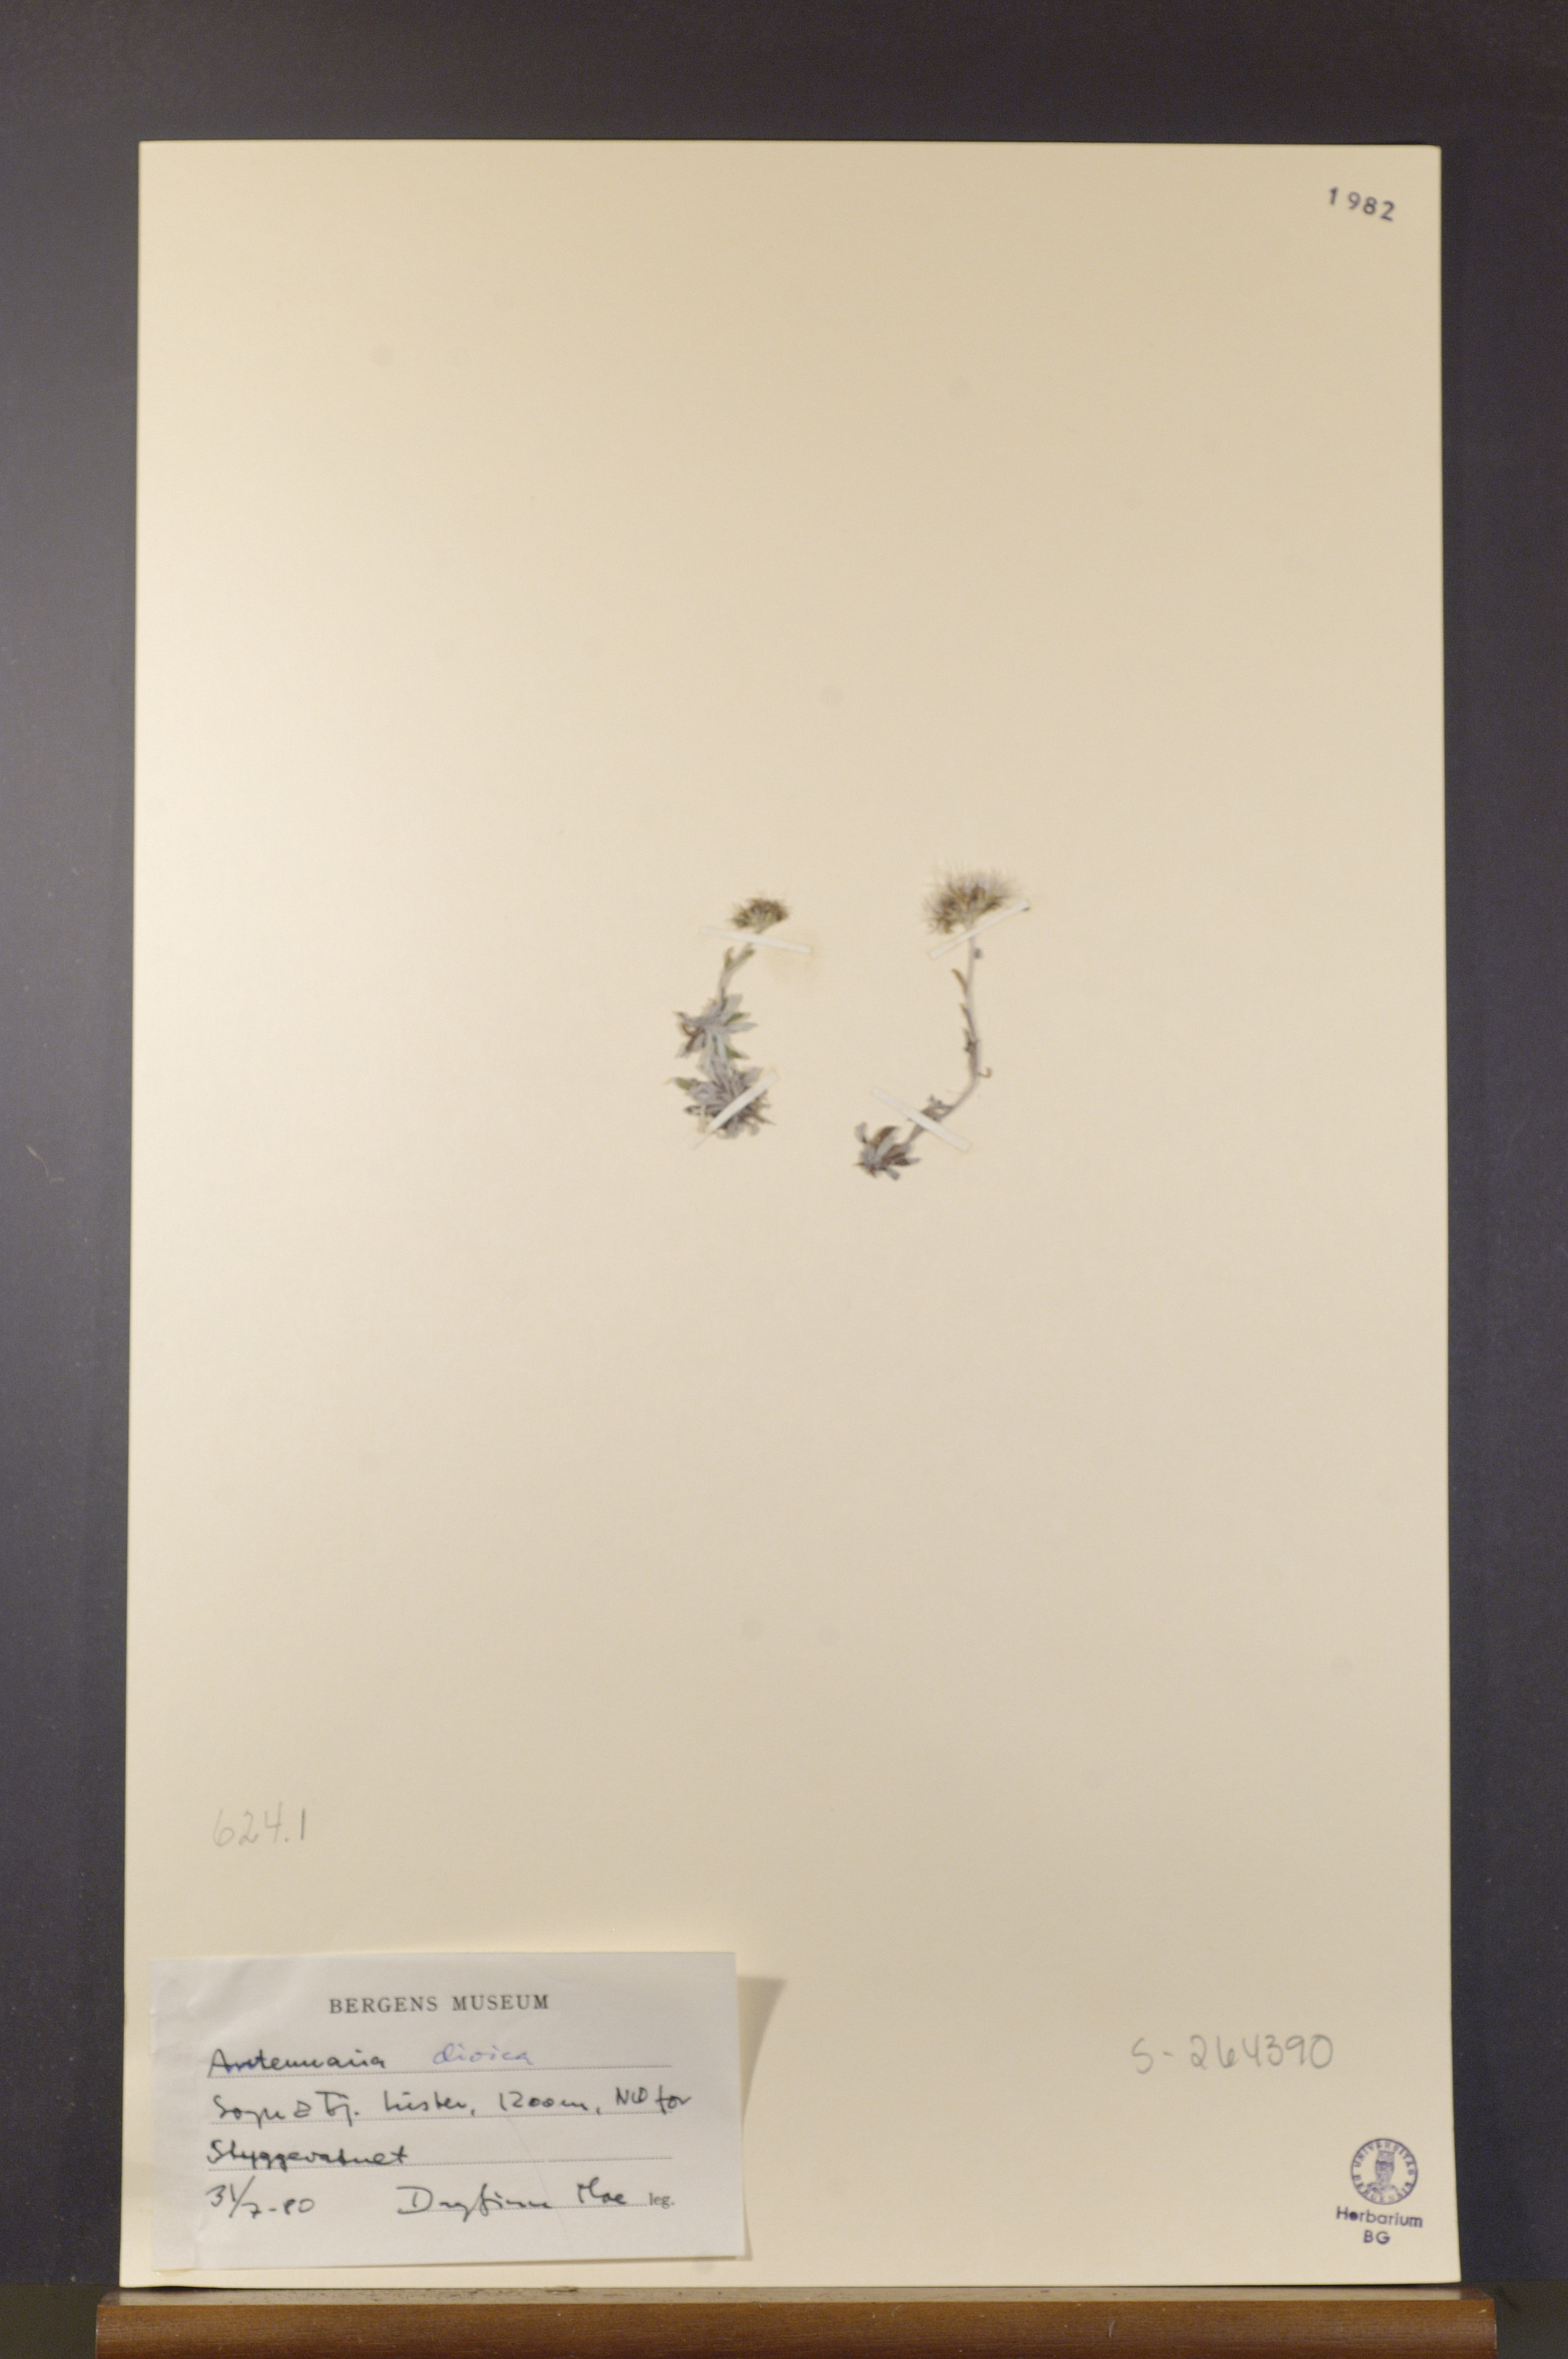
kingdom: Plantae
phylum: Tracheophyta
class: Magnoliopsida
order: Asterales
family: Asteraceae
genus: Antennaria
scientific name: Antennaria dioica
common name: Mountain everlasting
